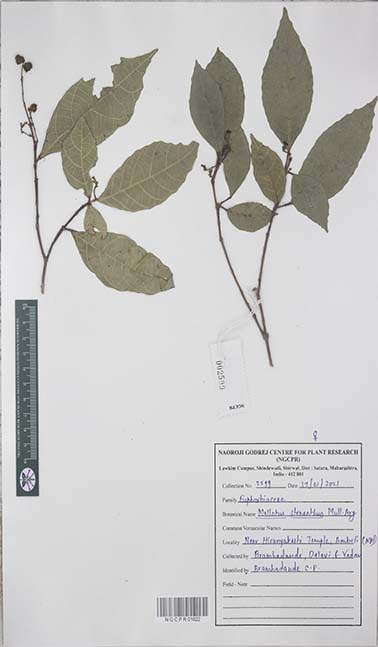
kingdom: Plantae
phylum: Tracheophyta
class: Magnoliopsida
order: Malpighiales
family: Euphorbiaceae
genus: Mallotus
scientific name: Mallotus resinosus
